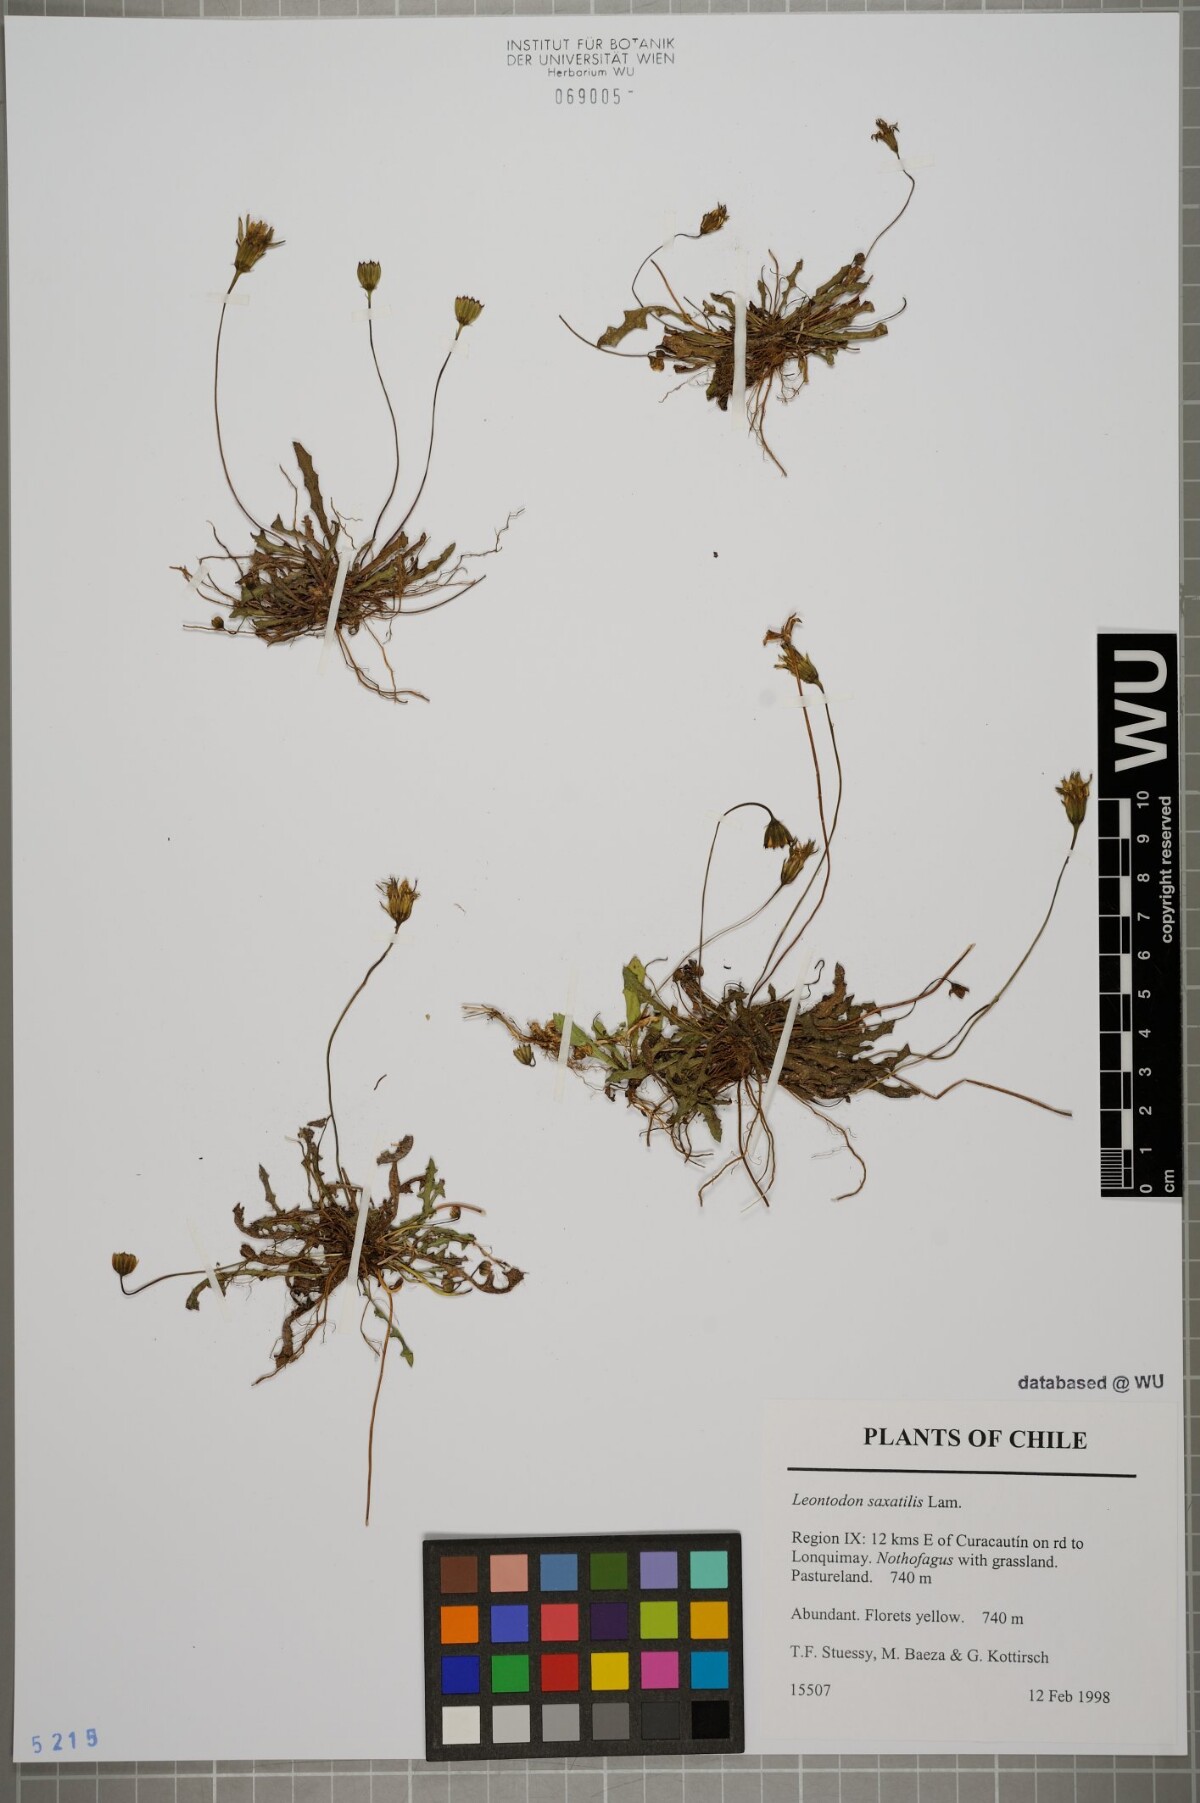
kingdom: Plantae
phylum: Tracheophyta
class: Magnoliopsida
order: Asterales
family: Asteraceae
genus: Thrincia
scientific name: Thrincia saxatilis
